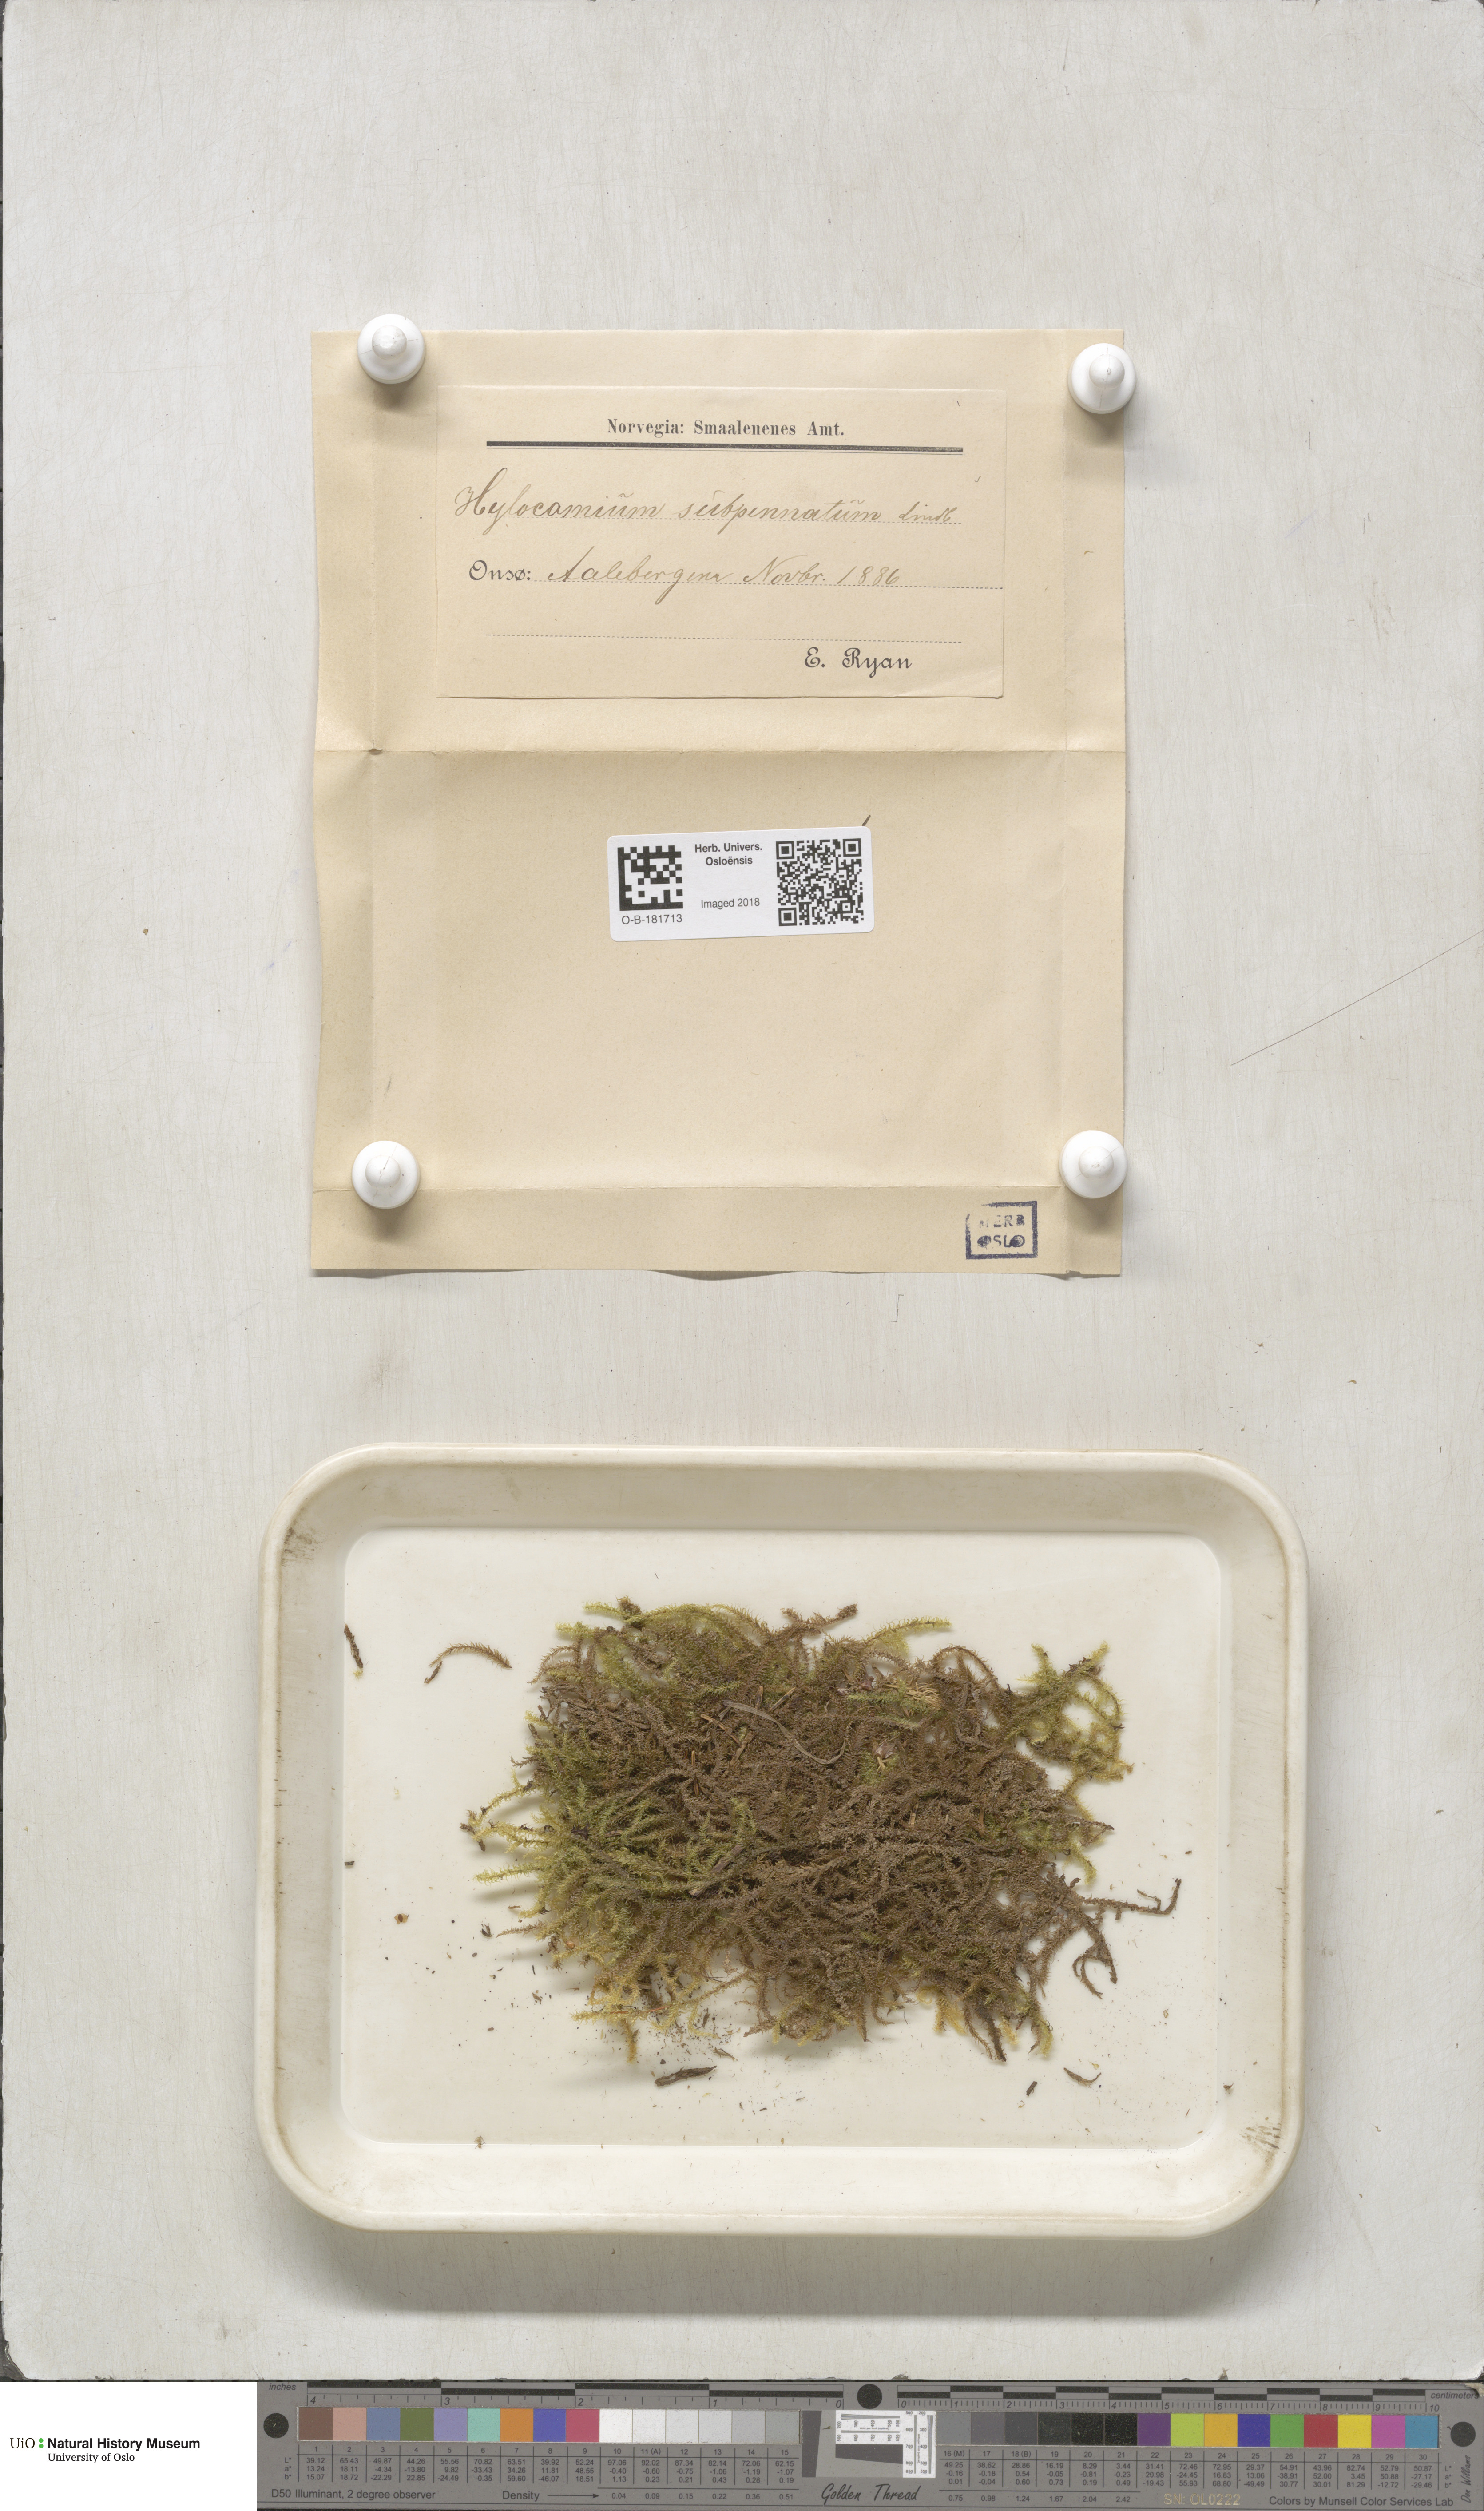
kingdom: Plantae
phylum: Bryophyta
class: Bryopsida
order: Hypnales
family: Hylocomiaceae
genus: Rhytidiadelphus
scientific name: Rhytidiadelphus subpinnatus
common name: Subpinnate gooseneck moss
